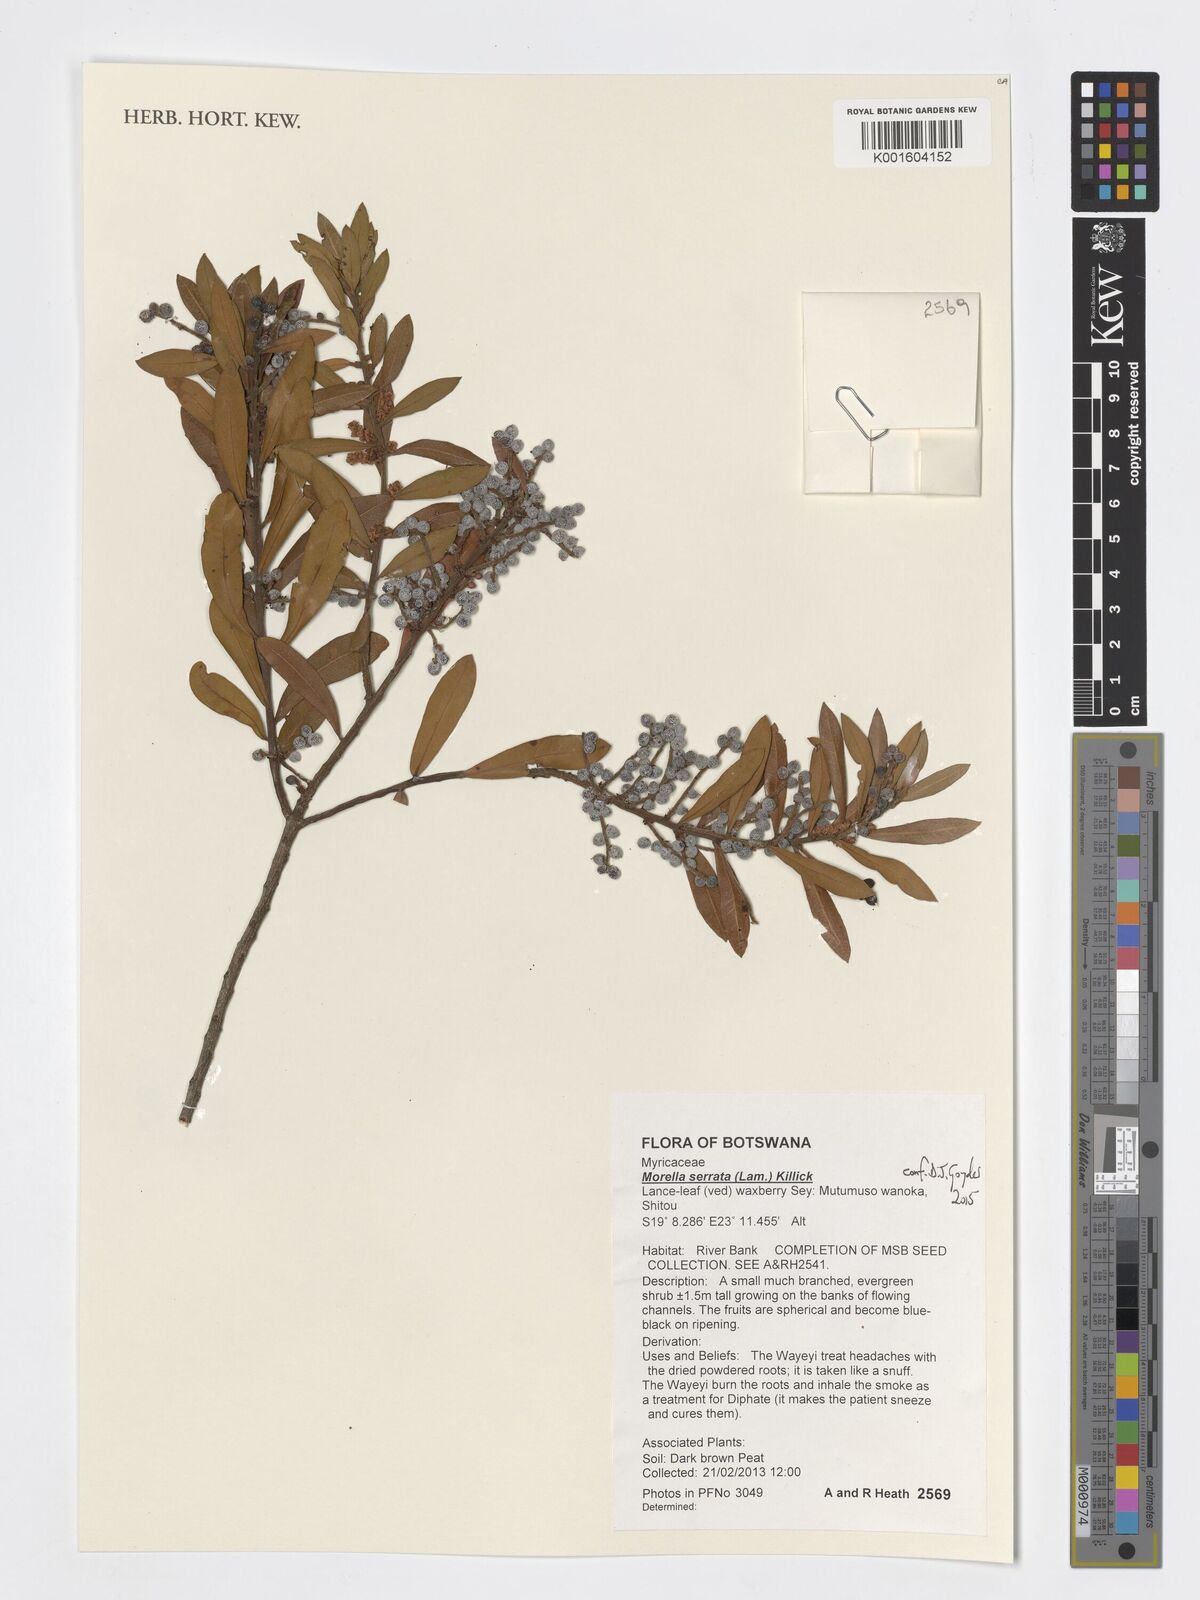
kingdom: Plantae
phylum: Tracheophyta
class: Magnoliopsida
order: Fagales
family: Myricaceae
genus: Morella
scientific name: Morella serrata
